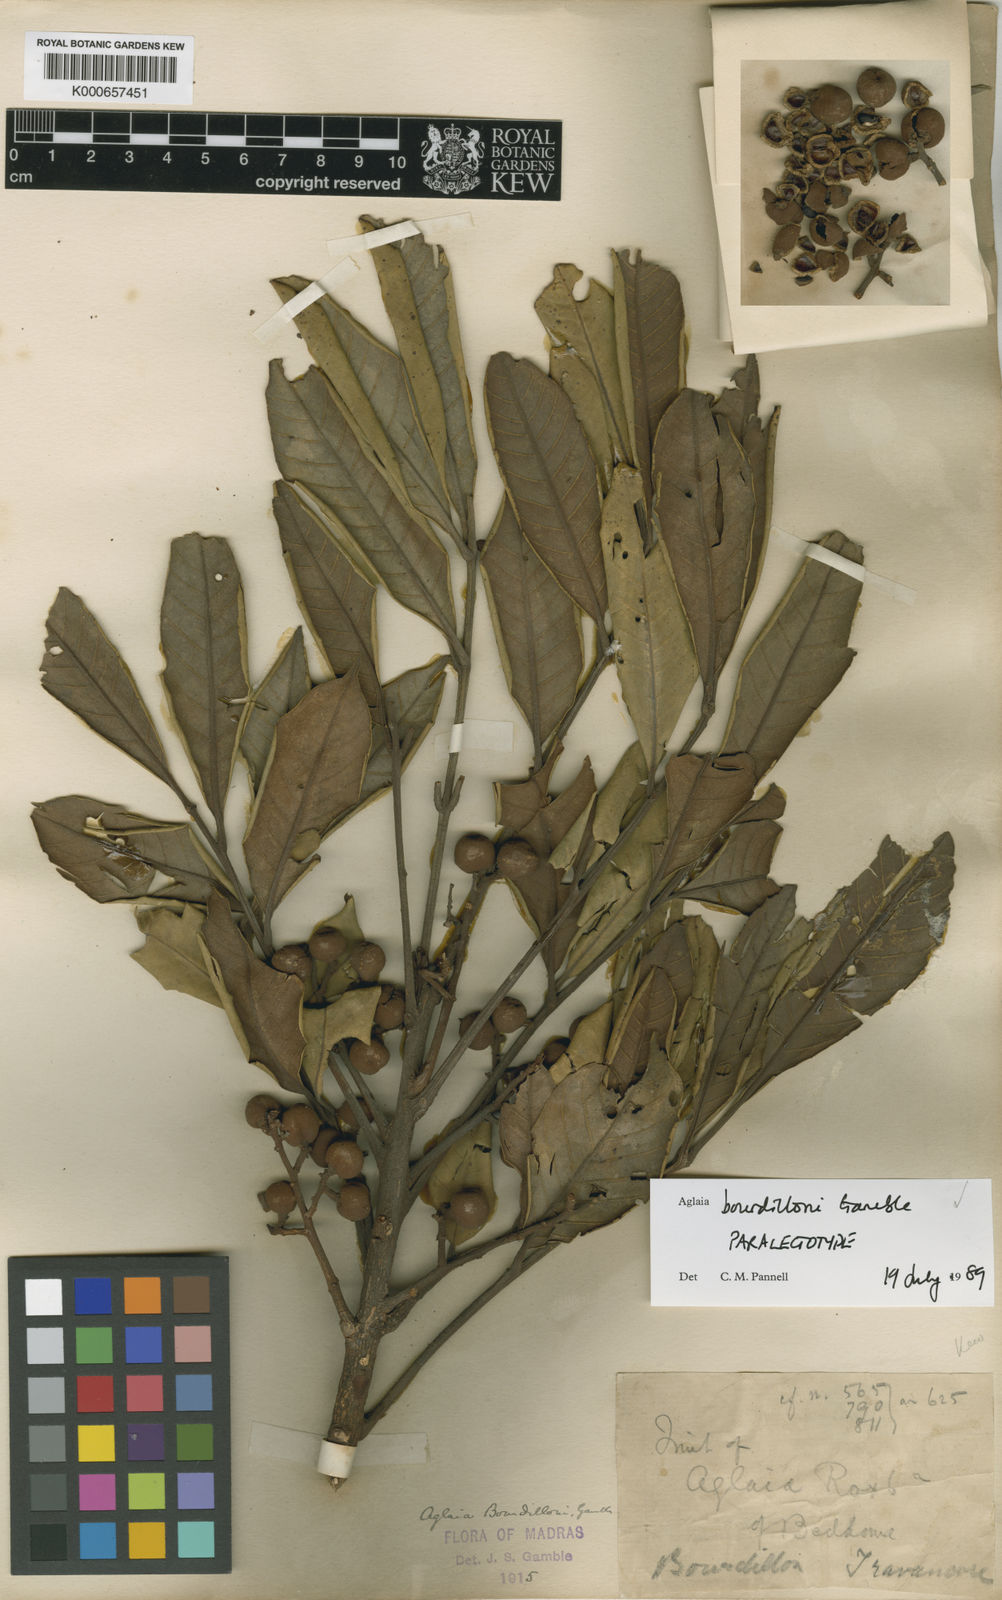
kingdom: Plantae
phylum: Tracheophyta
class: Magnoliopsida
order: Sapindales
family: Meliaceae
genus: Aglaia
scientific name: Aglaia elaeagnoidea
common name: Droopyleaf
